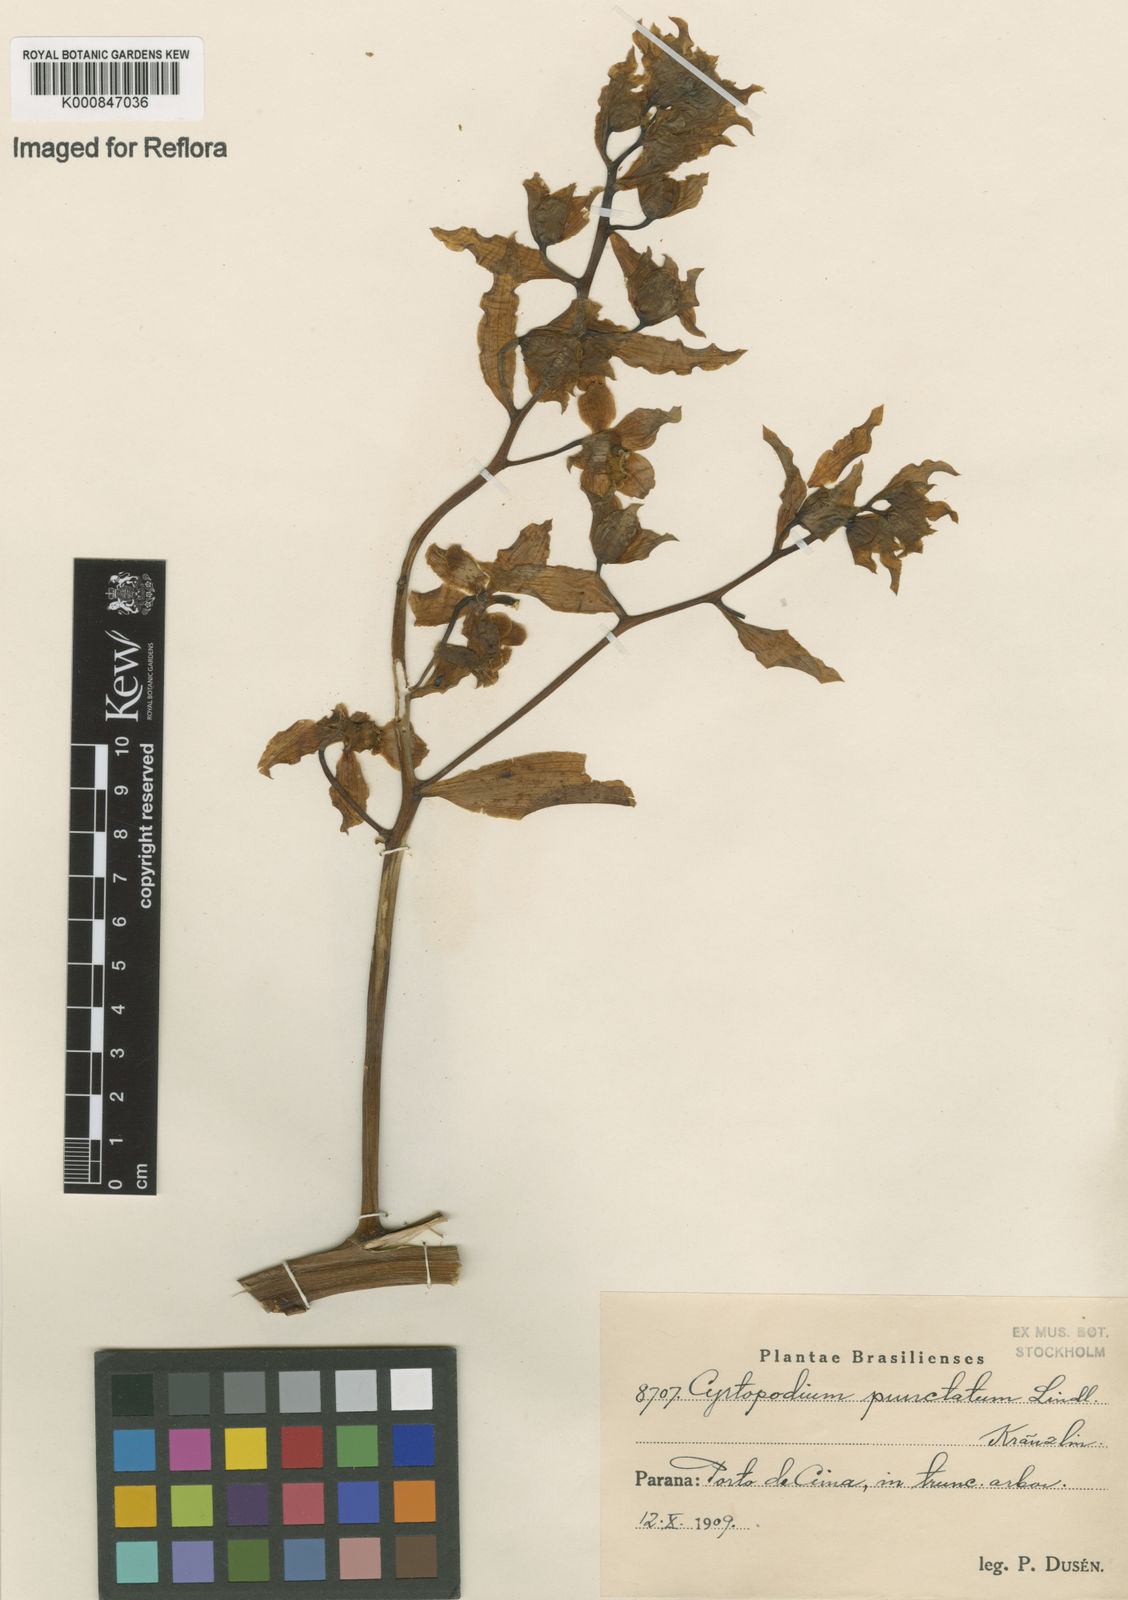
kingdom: Plantae
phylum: Tracheophyta
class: Liliopsida
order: Asparagales
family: Orchidaceae
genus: Cyrtopodium
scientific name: Cyrtopodium punctatum
